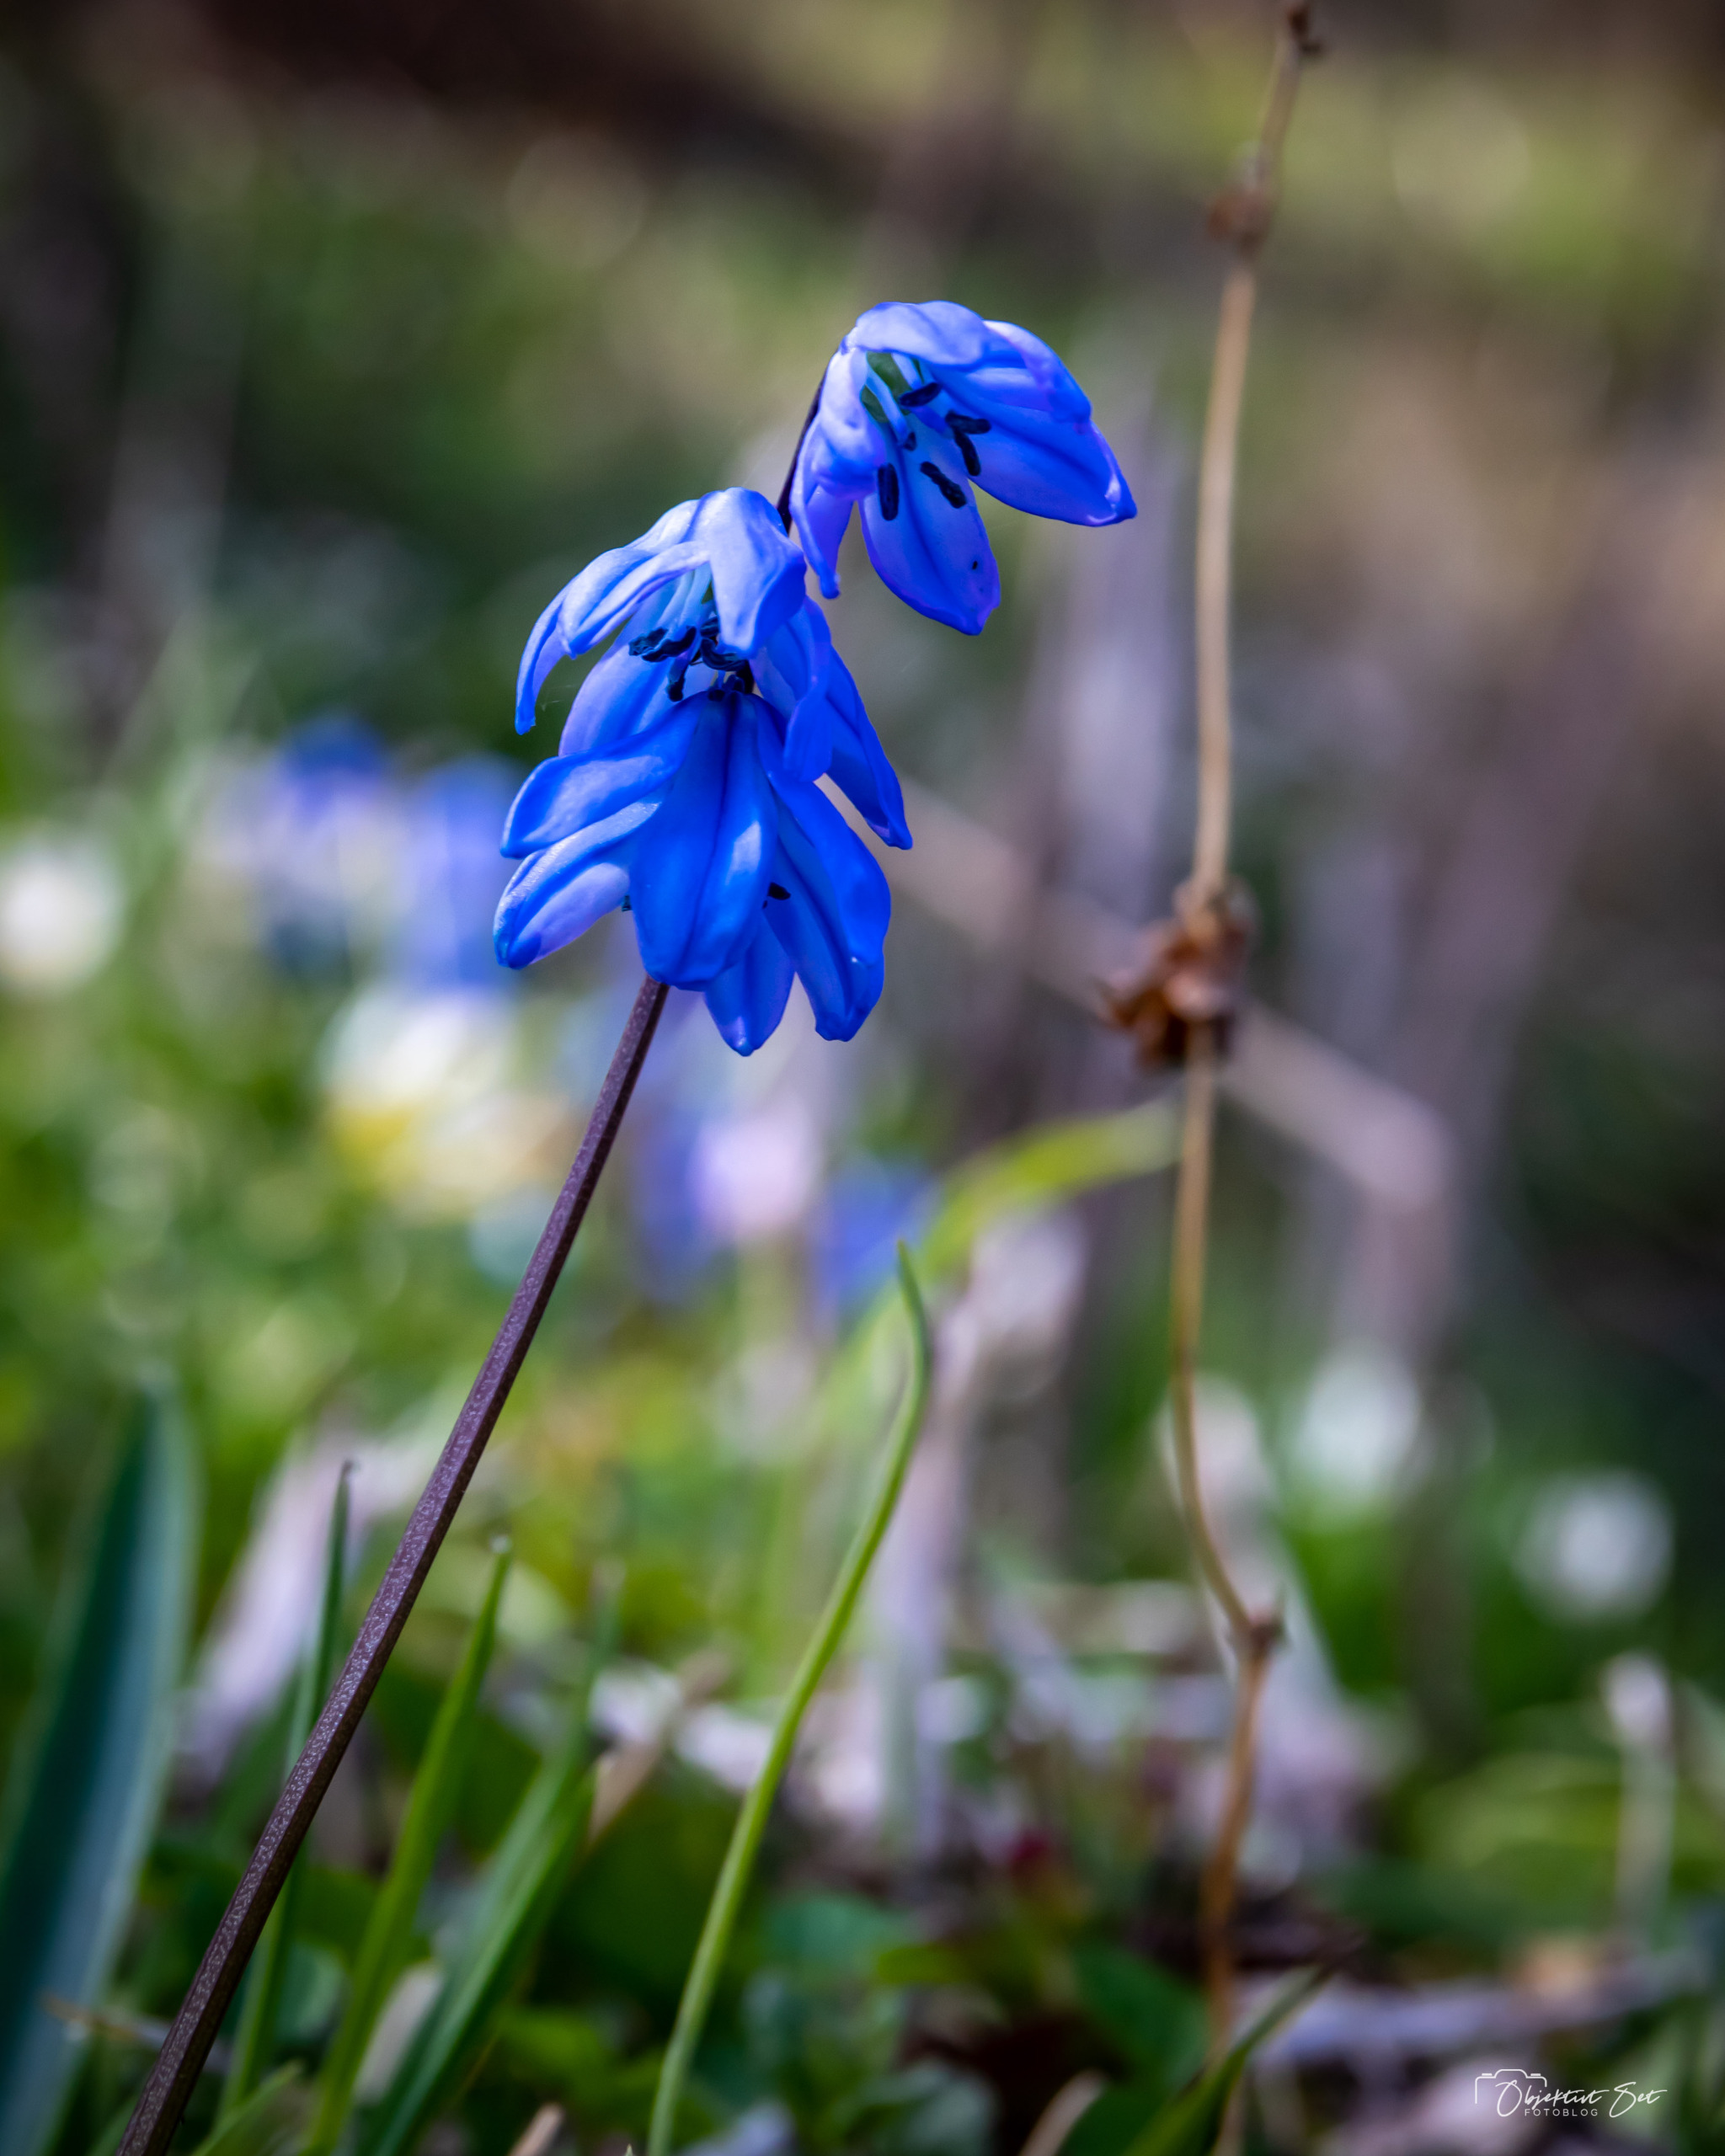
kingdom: Plantae
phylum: Tracheophyta
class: Liliopsida
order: Asparagales
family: Asparagaceae
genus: Scilla
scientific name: Scilla siberica
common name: Russisk skilla
